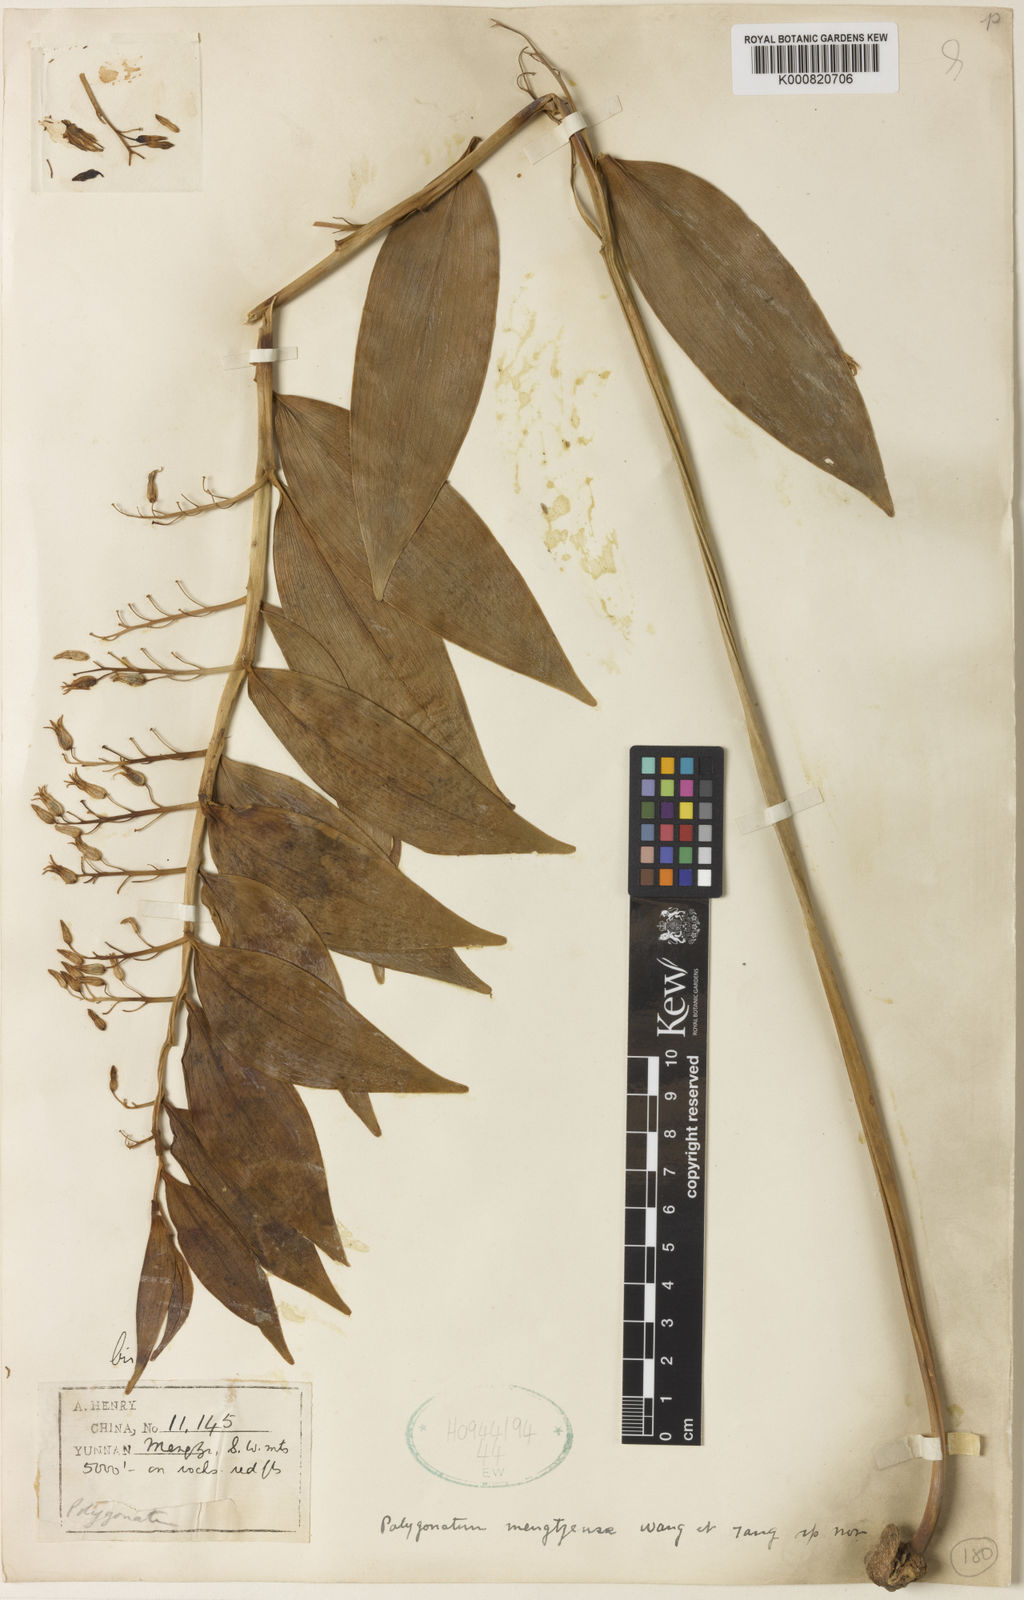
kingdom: Plantae
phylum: Tracheophyta
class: Liliopsida
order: Asparagales
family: Asparagaceae
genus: Polygonatum
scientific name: Polygonatum mengtzense
